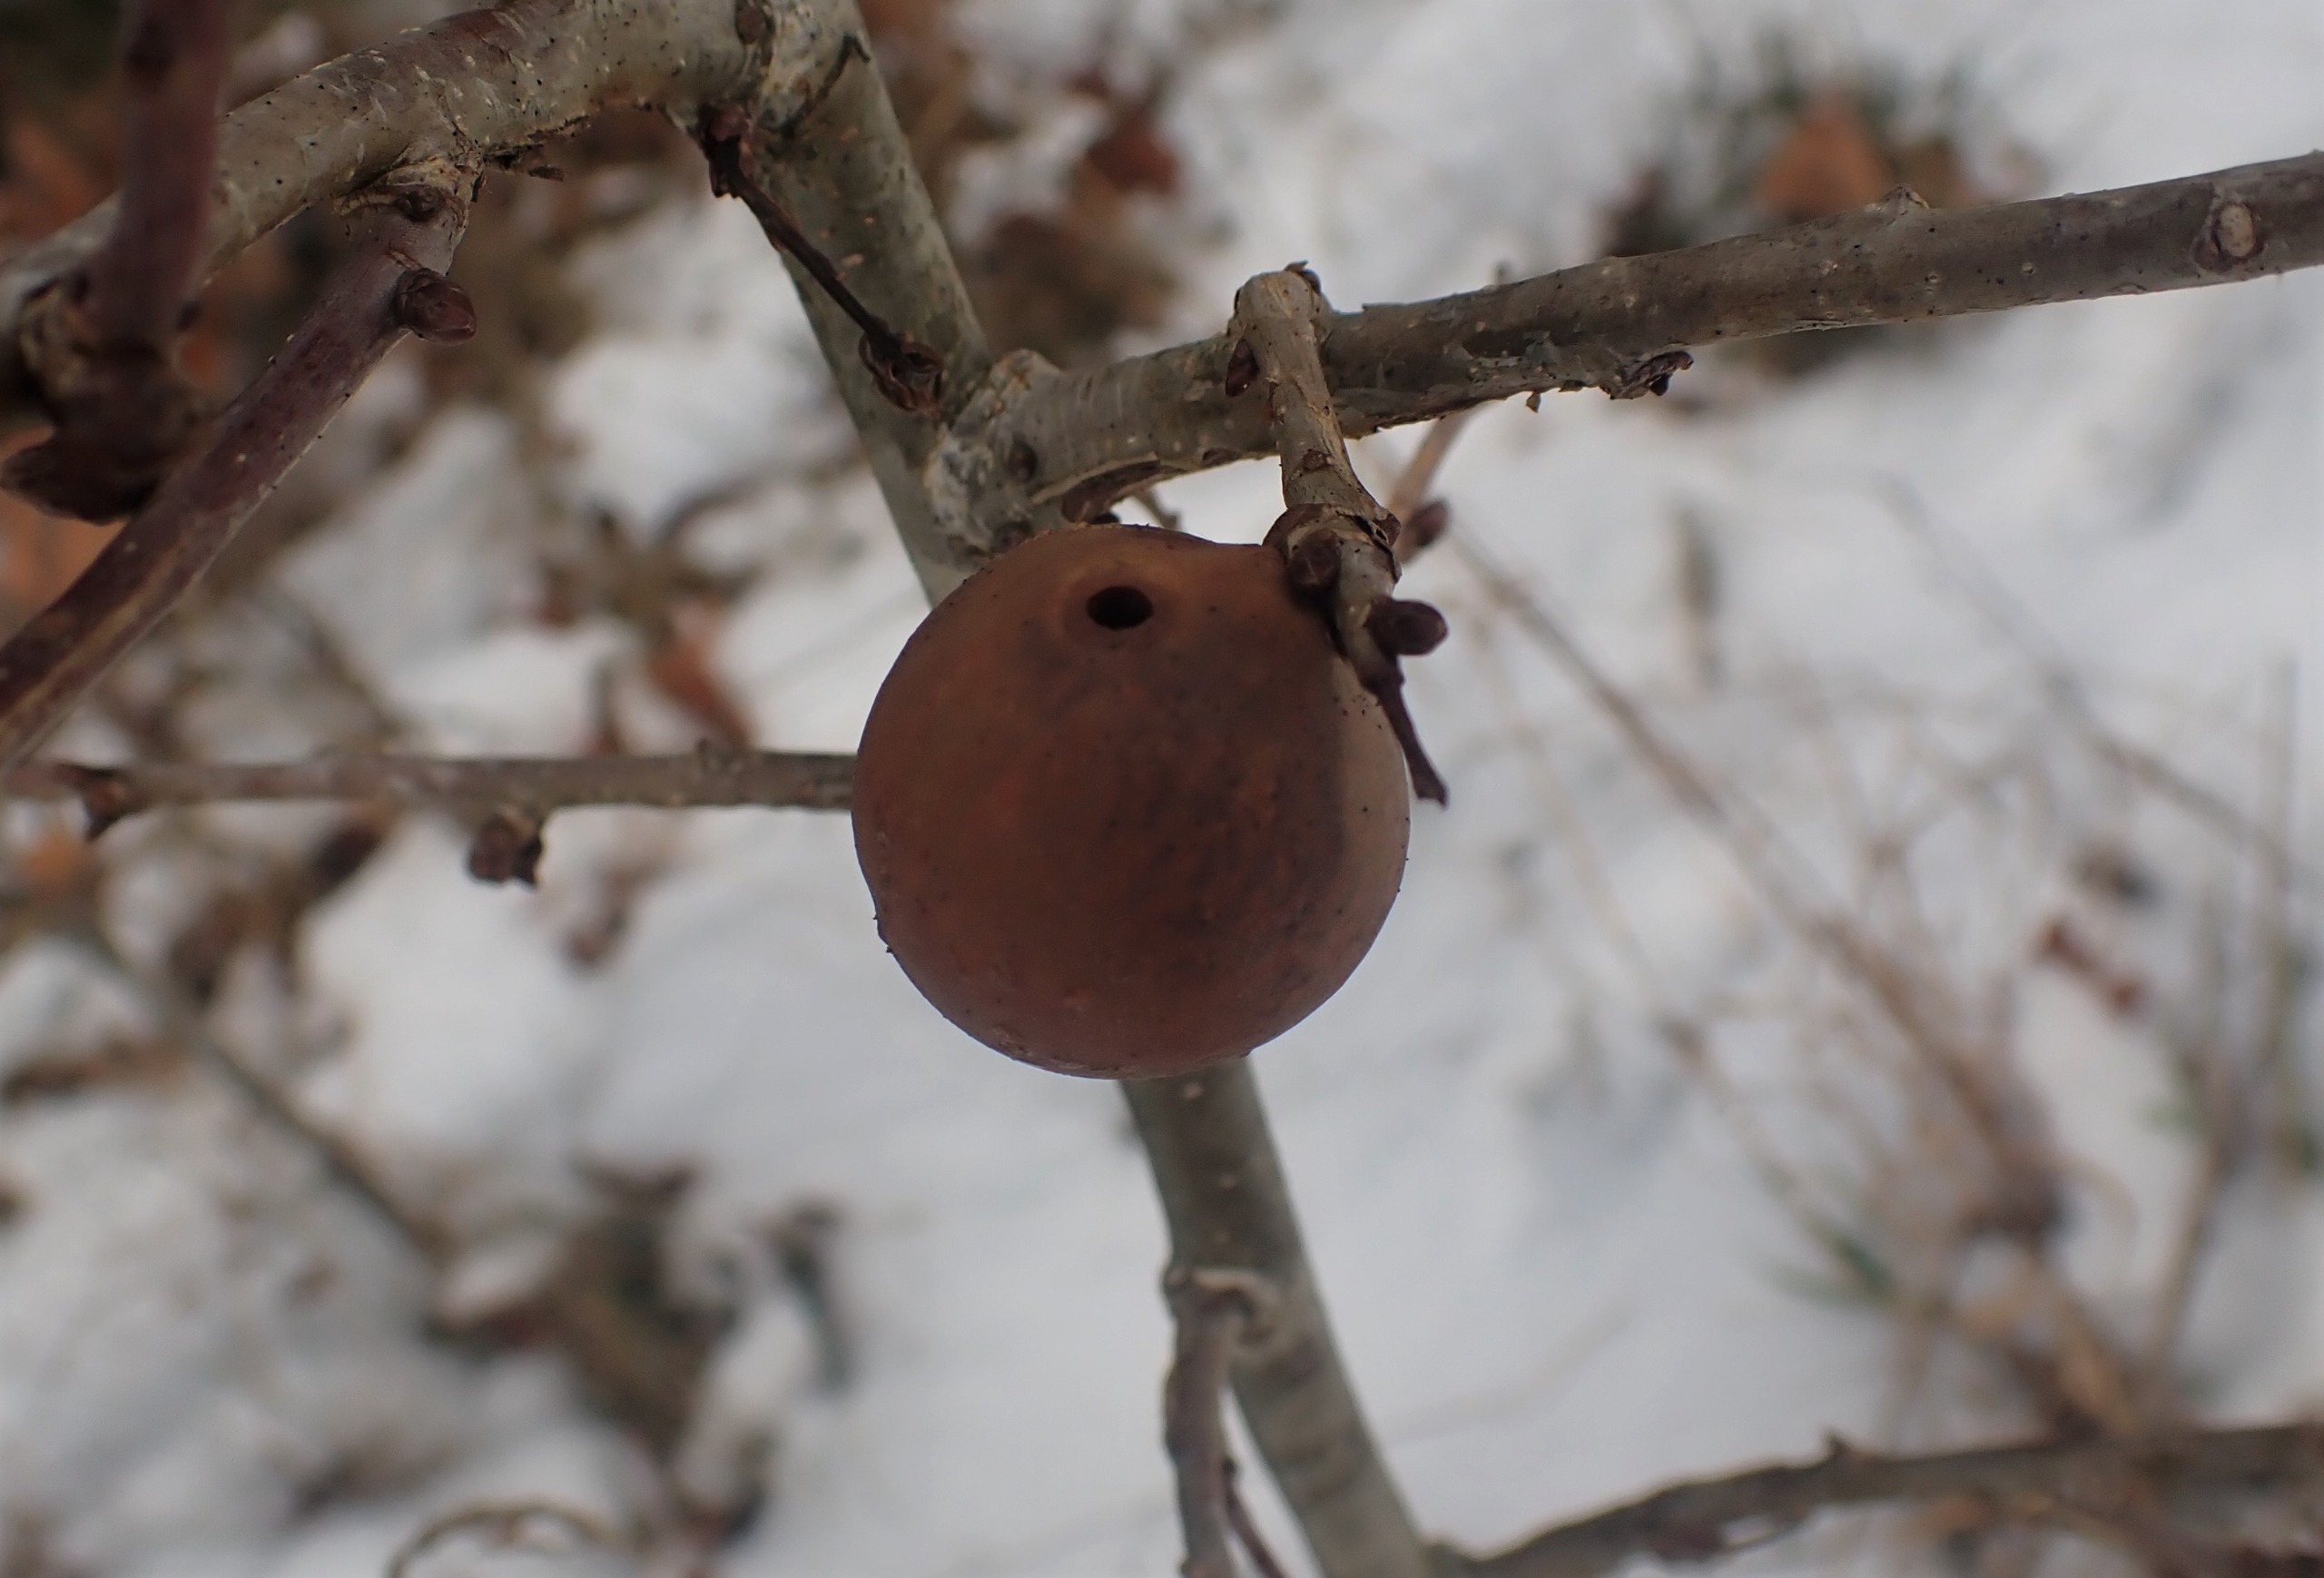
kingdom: Animalia
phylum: Arthropoda
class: Insecta
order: Hymenoptera
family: Cynipidae
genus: Andricus
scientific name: Andricus kollari
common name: Marmorkugle-galhveps
